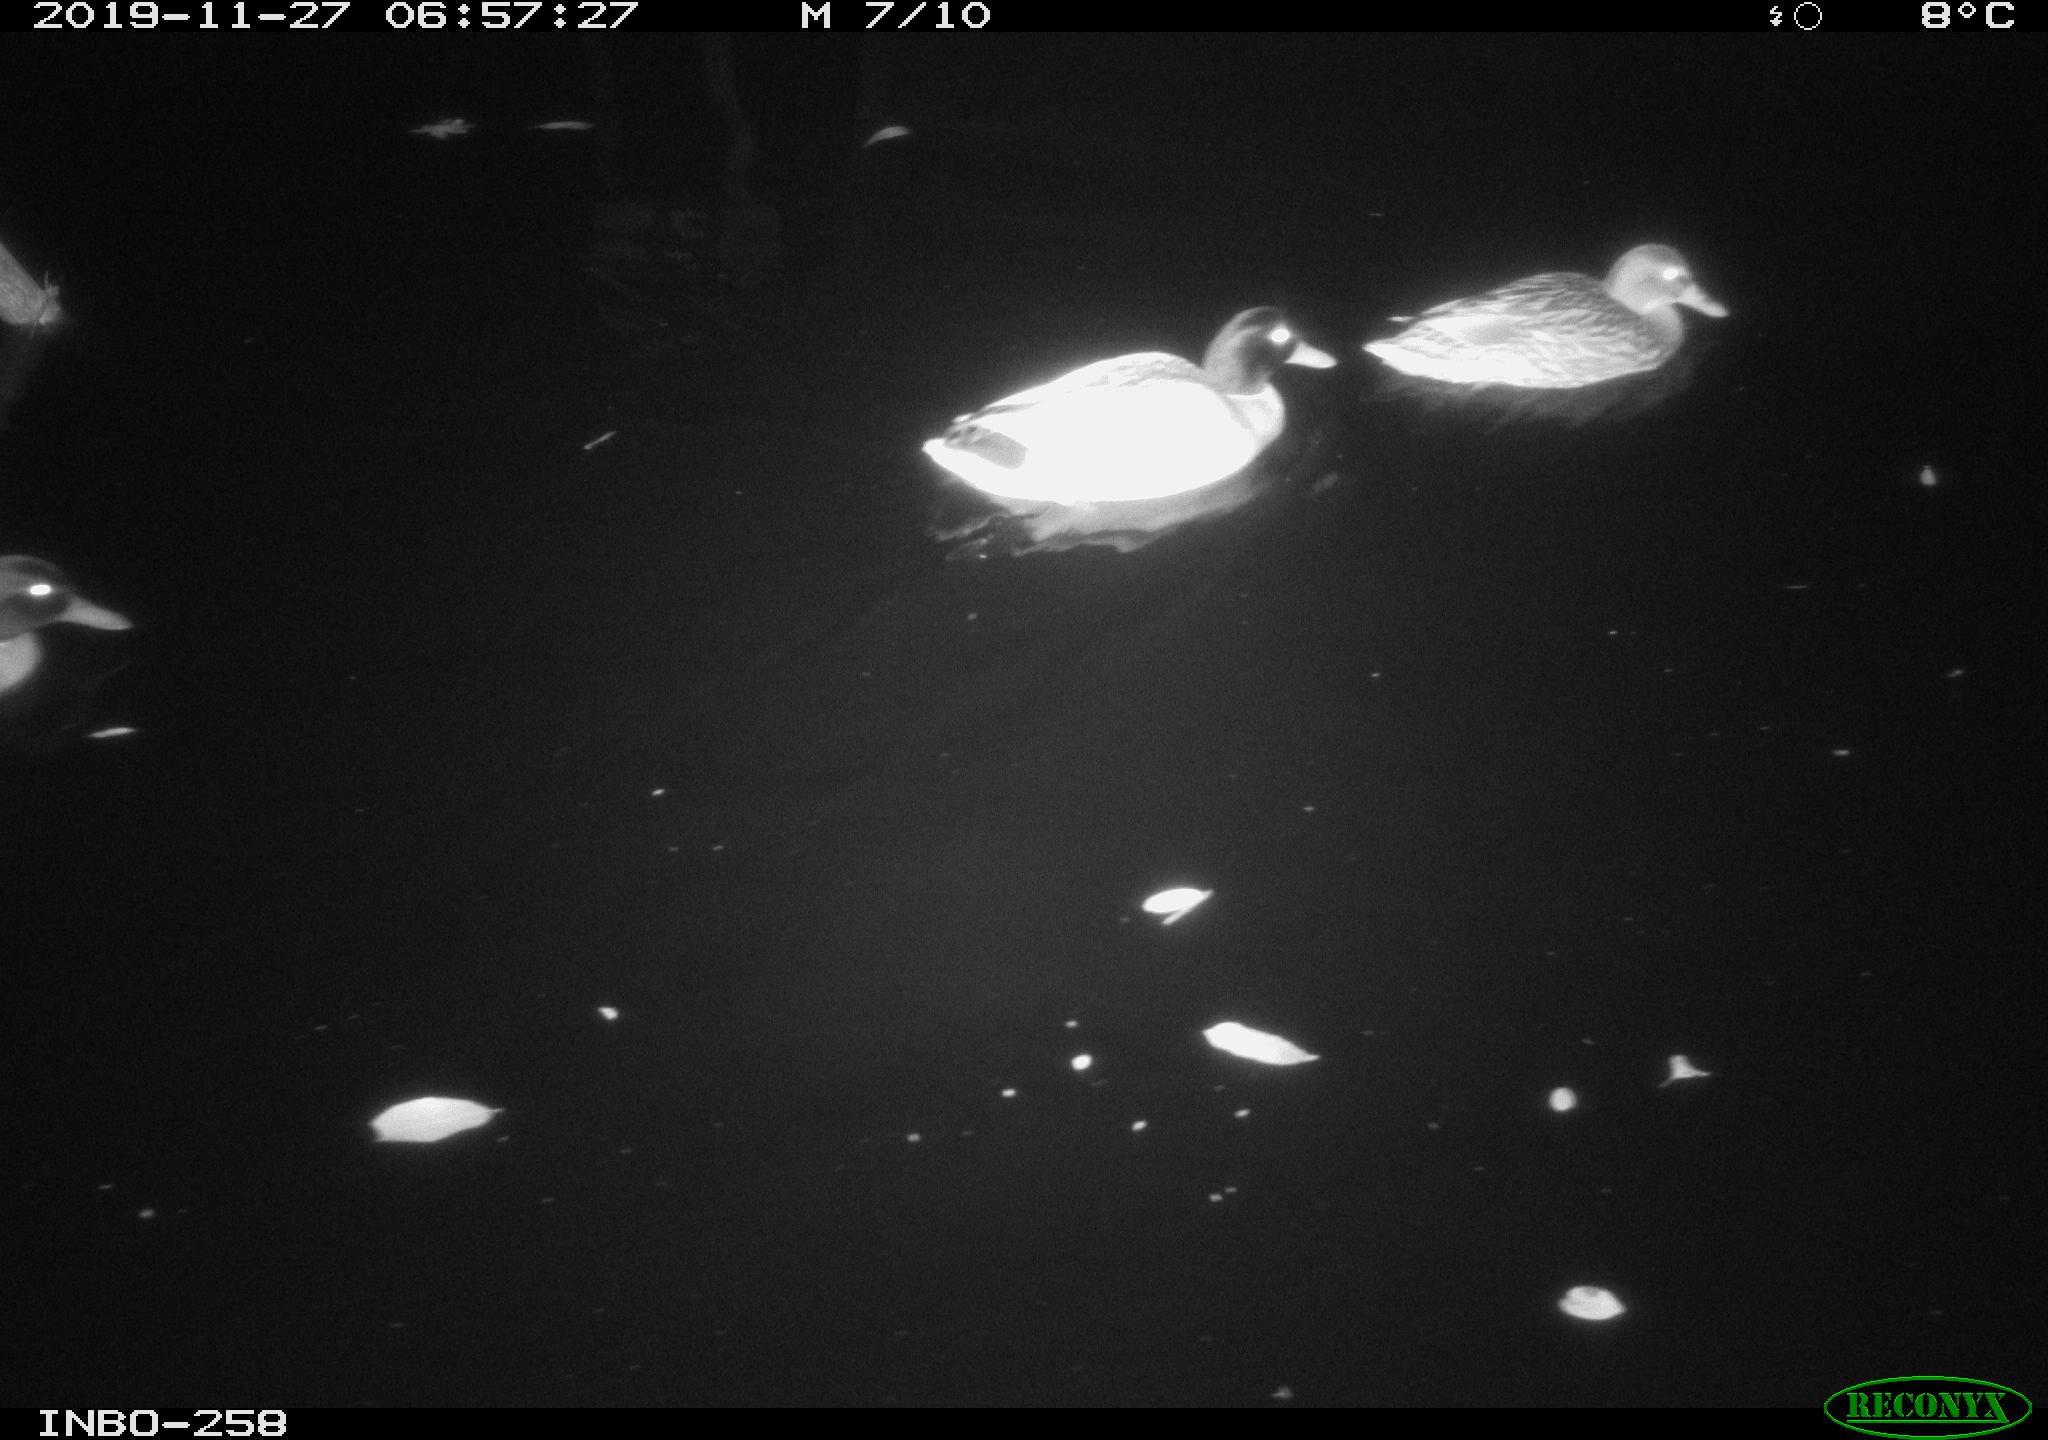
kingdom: Animalia
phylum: Chordata
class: Aves
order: Anseriformes
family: Anatidae
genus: Anas
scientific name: Anas platyrhynchos
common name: Mallard
